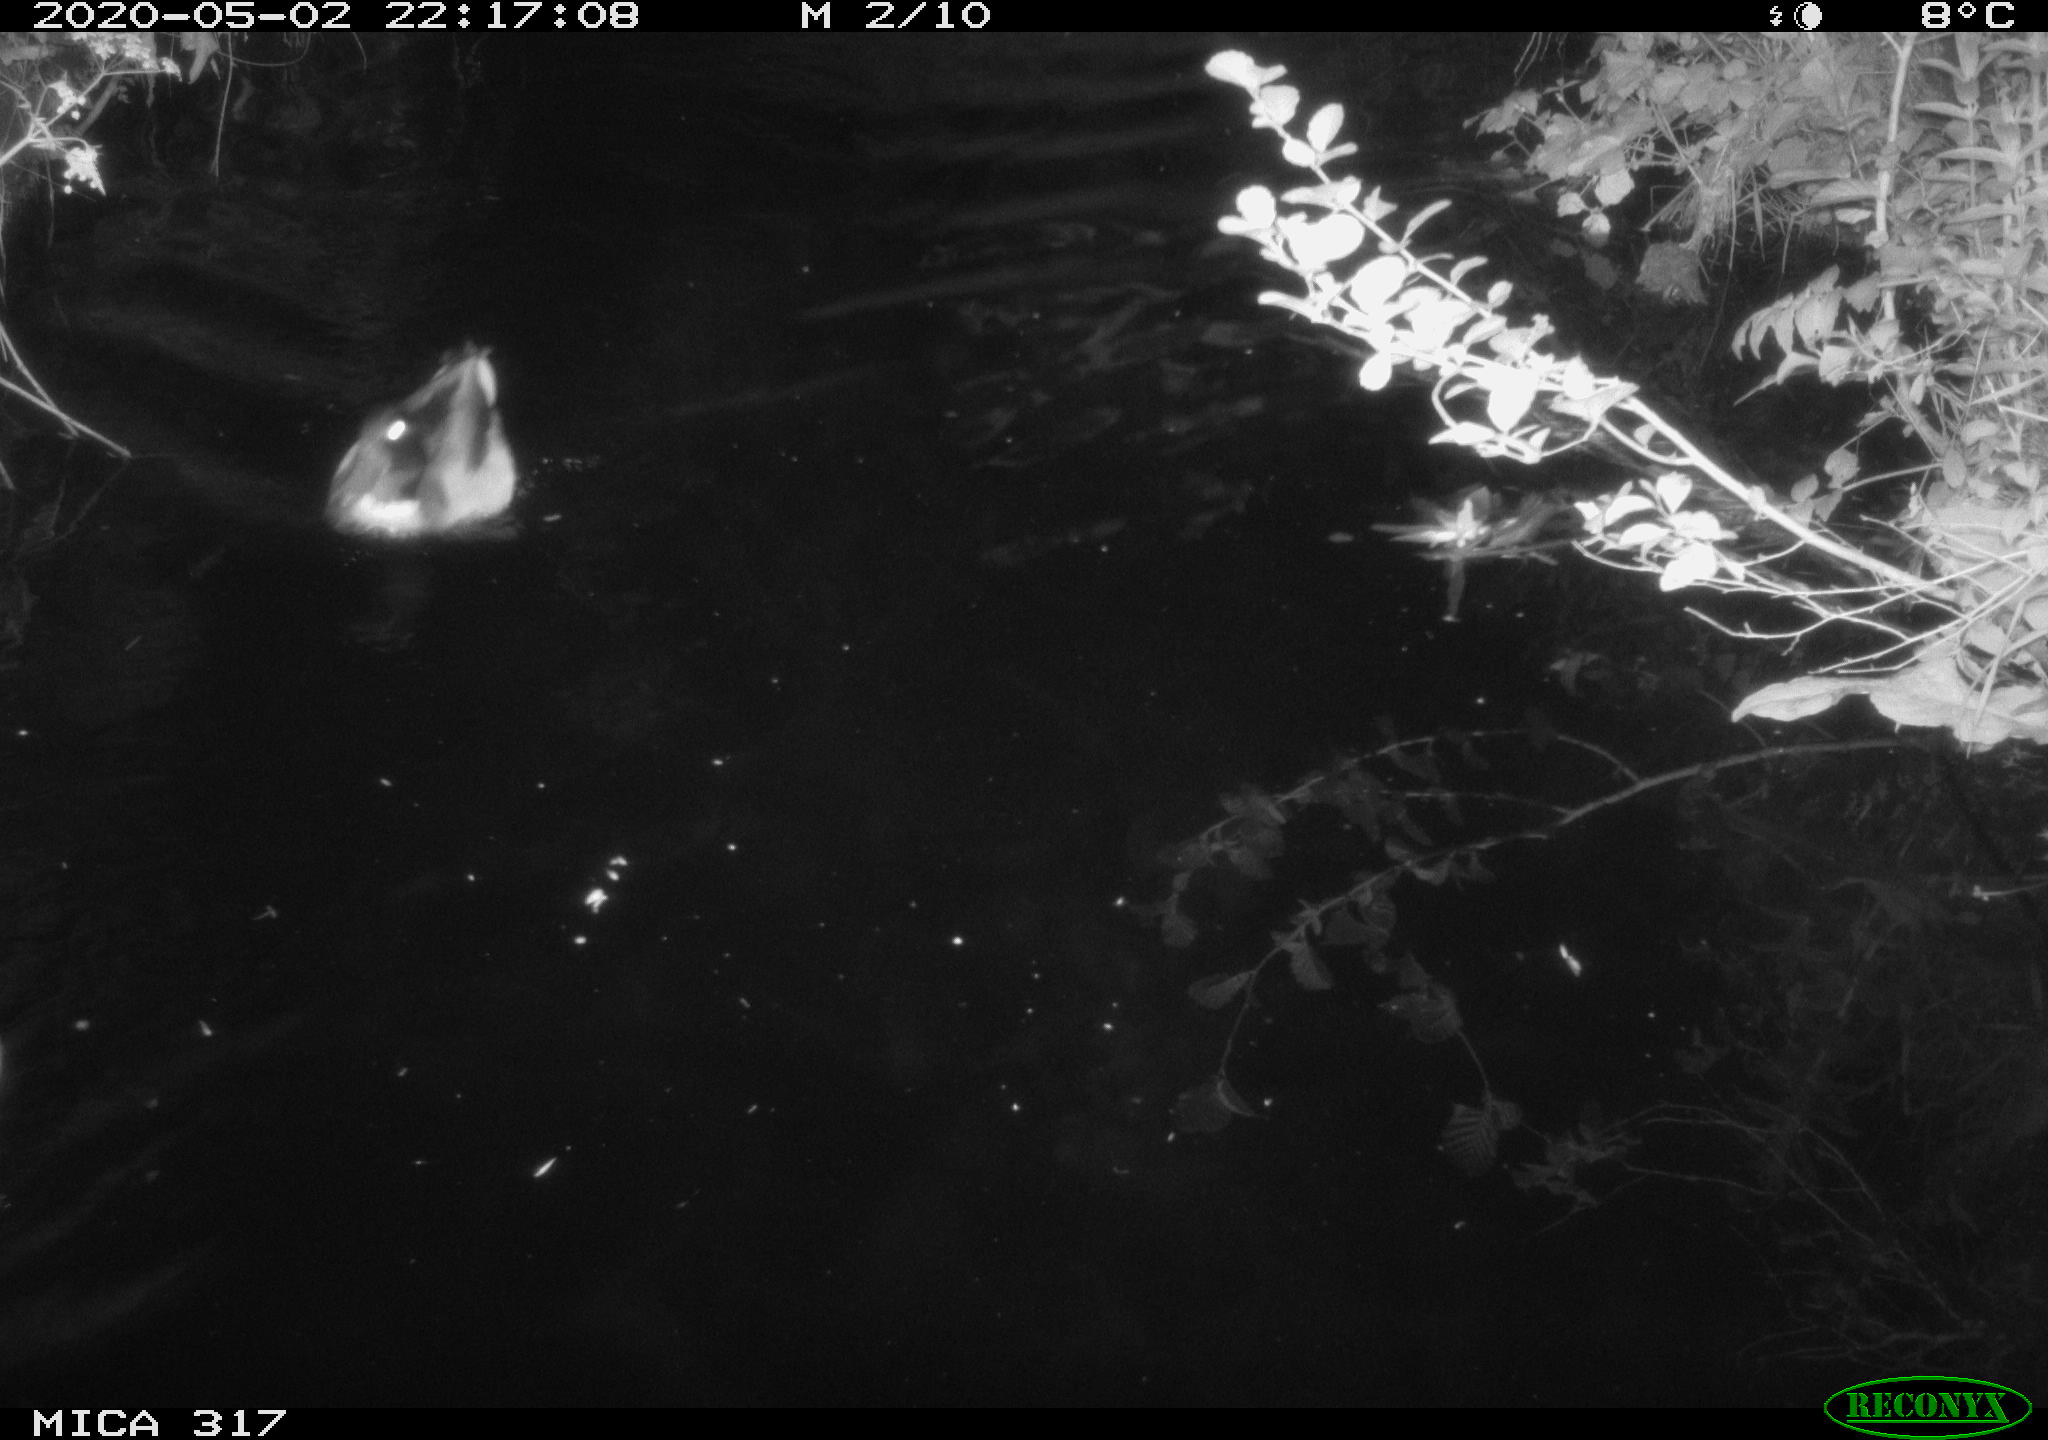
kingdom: Animalia
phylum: Chordata
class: Aves
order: Anseriformes
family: Anatidae
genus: Anas
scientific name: Anas platyrhynchos
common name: Mallard
